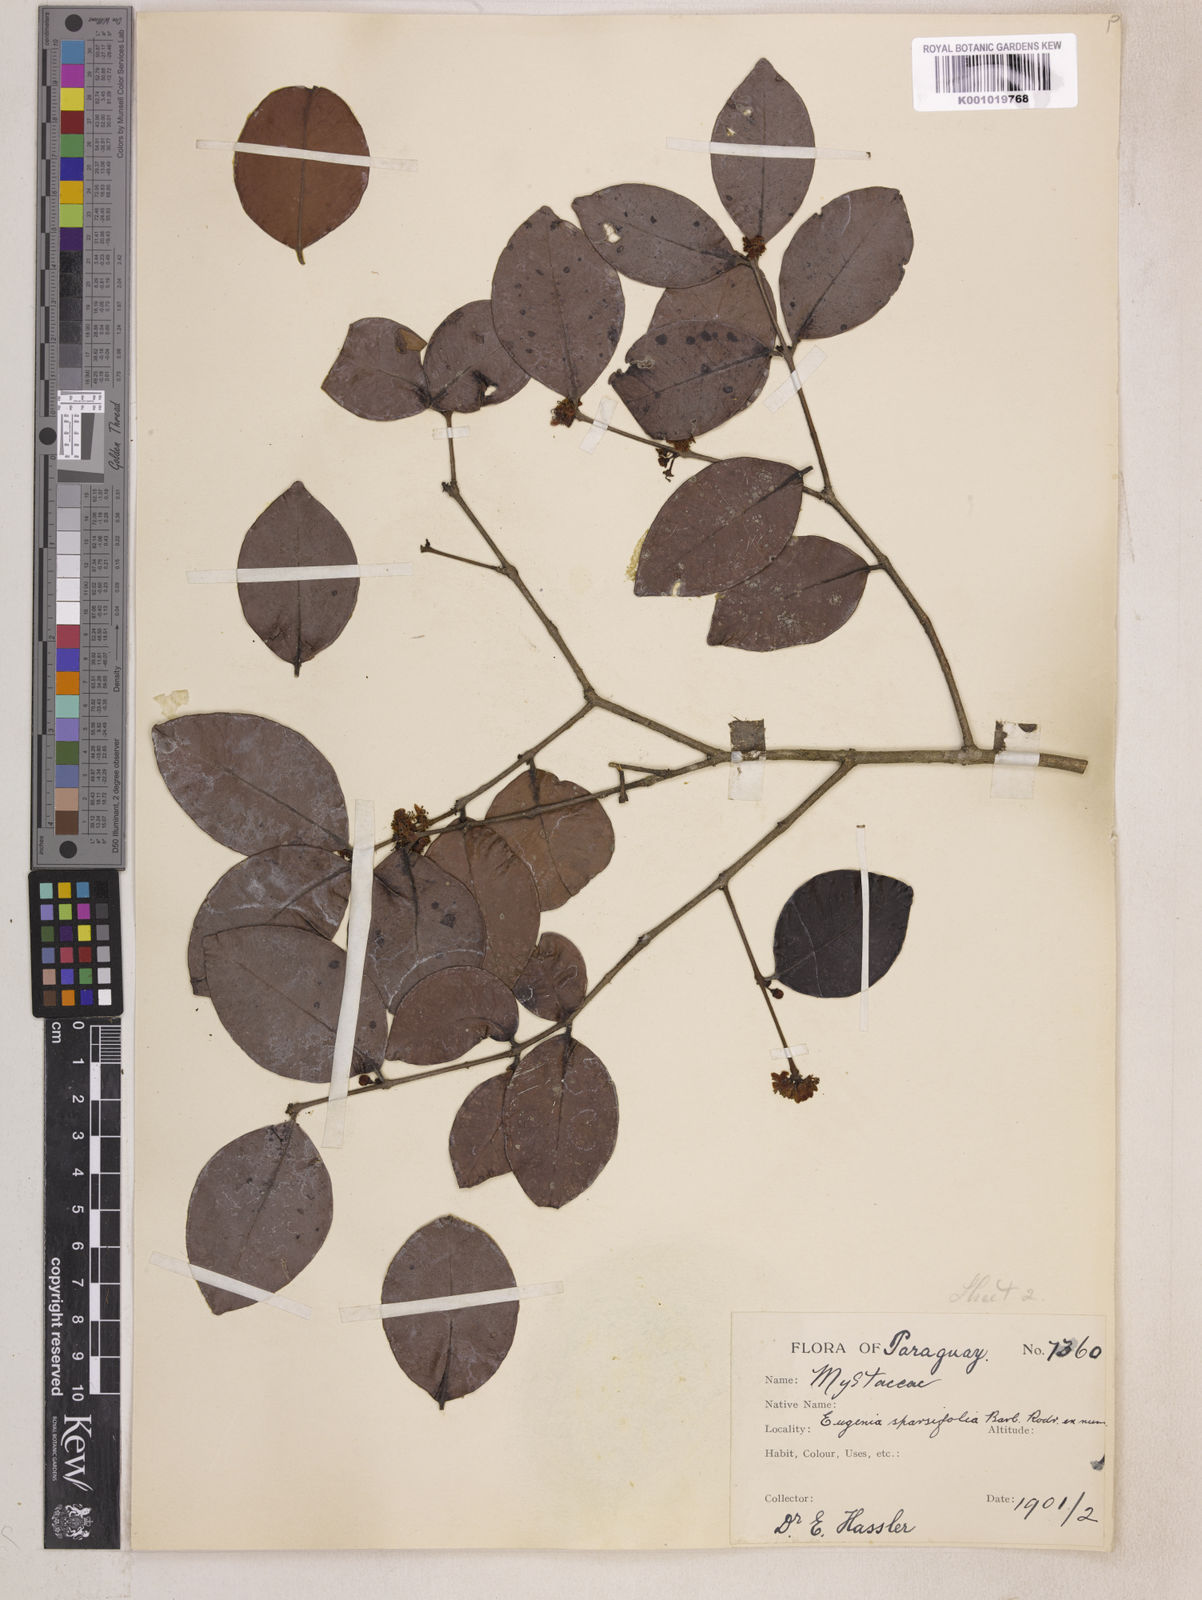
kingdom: Plantae
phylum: Tracheophyta
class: Magnoliopsida
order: Myrtales
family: Myrtaceae
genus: Eugenia
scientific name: Eugenia
